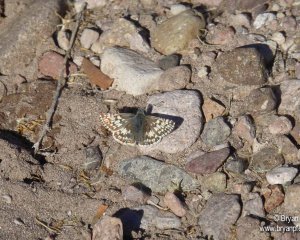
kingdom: Animalia
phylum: Arthropoda
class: Insecta
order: Lepidoptera
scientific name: Lepidoptera
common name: Butterflies
